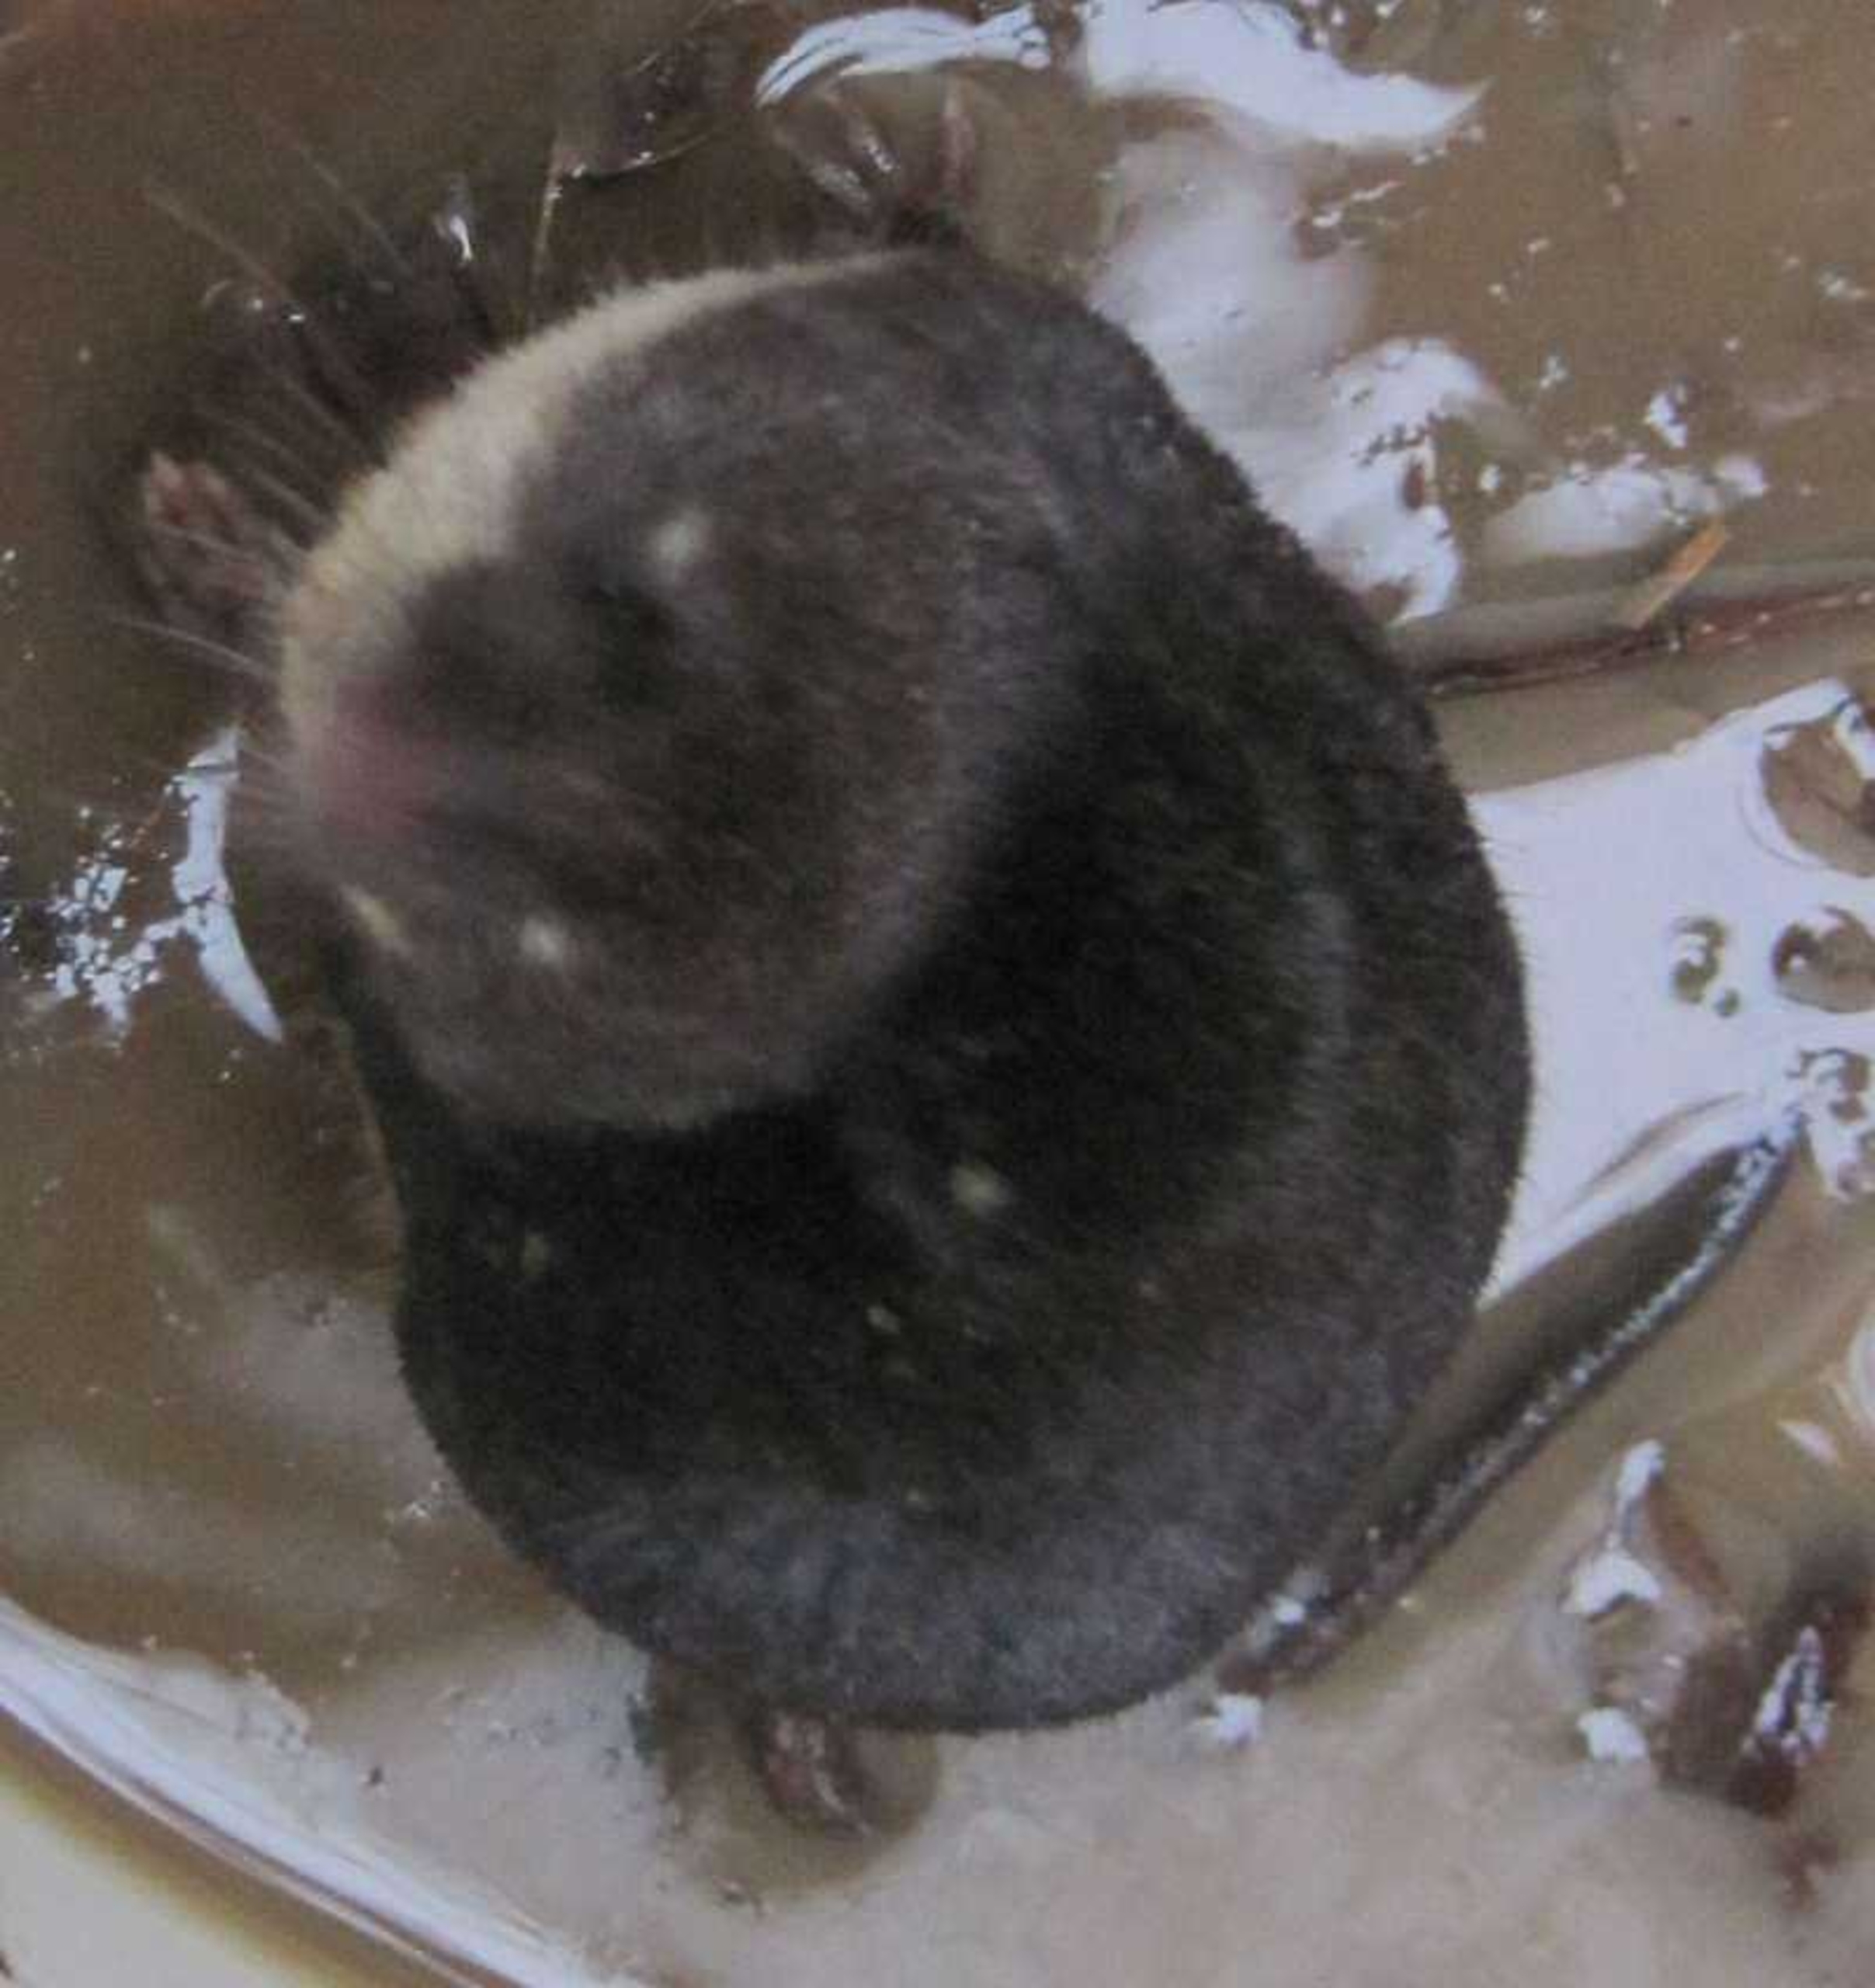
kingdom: Animalia
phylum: Chordata
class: Mammalia
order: Soricomorpha
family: Soricidae
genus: Neomys
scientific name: Neomys fodiens
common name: Vandspidsmus
